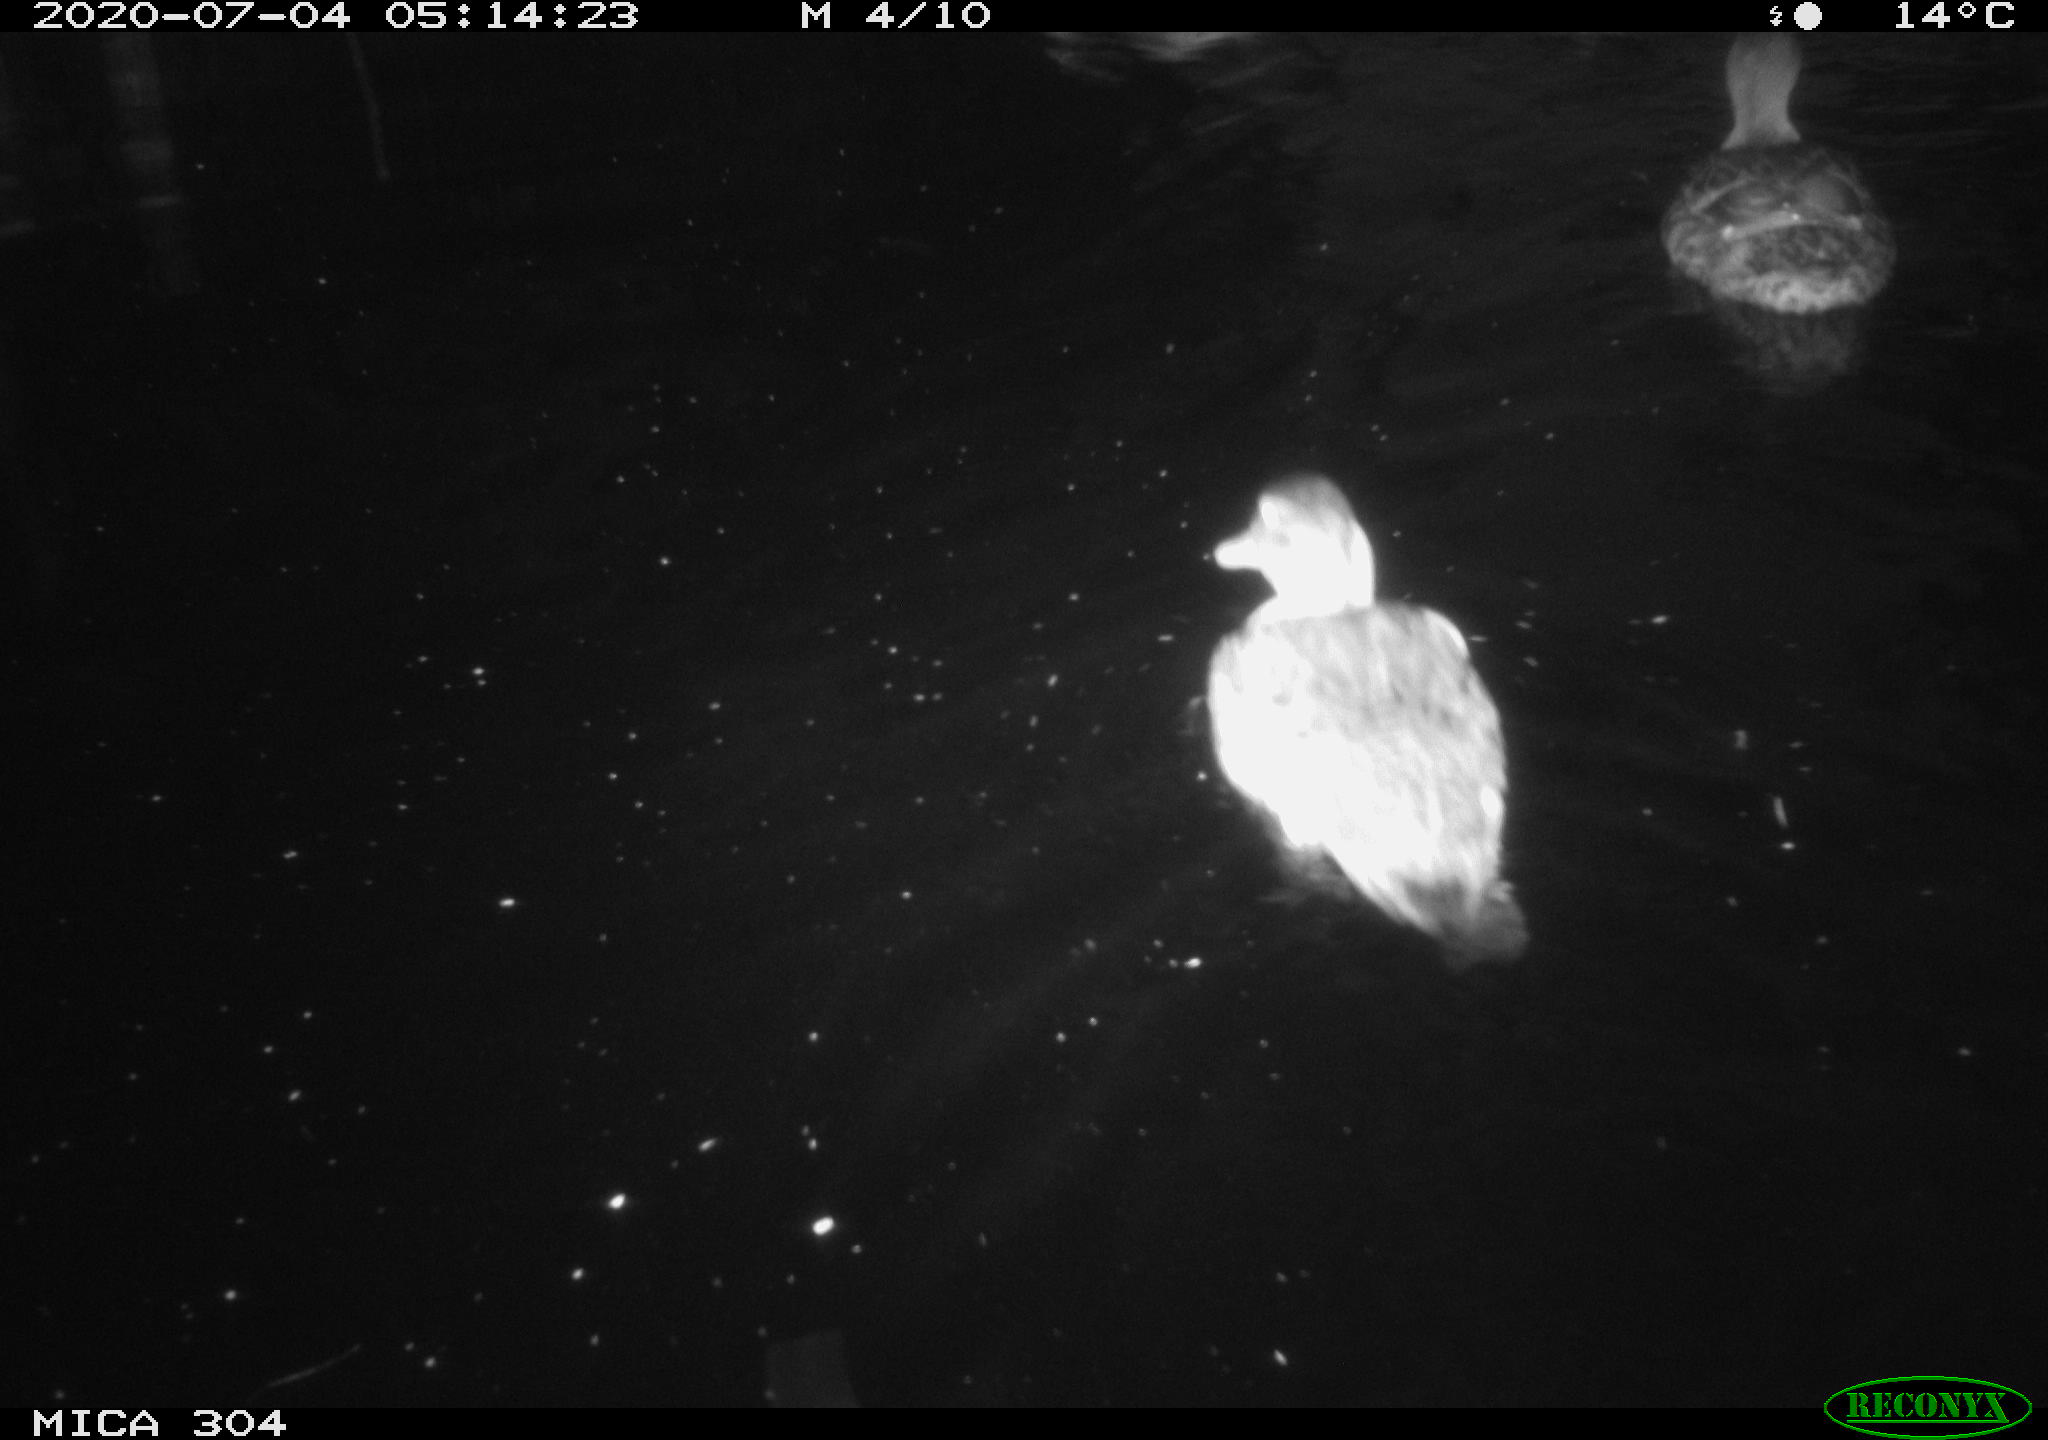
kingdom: Animalia
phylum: Chordata
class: Aves
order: Anseriformes
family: Anatidae
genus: Anas
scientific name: Anas platyrhynchos
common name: Mallard
